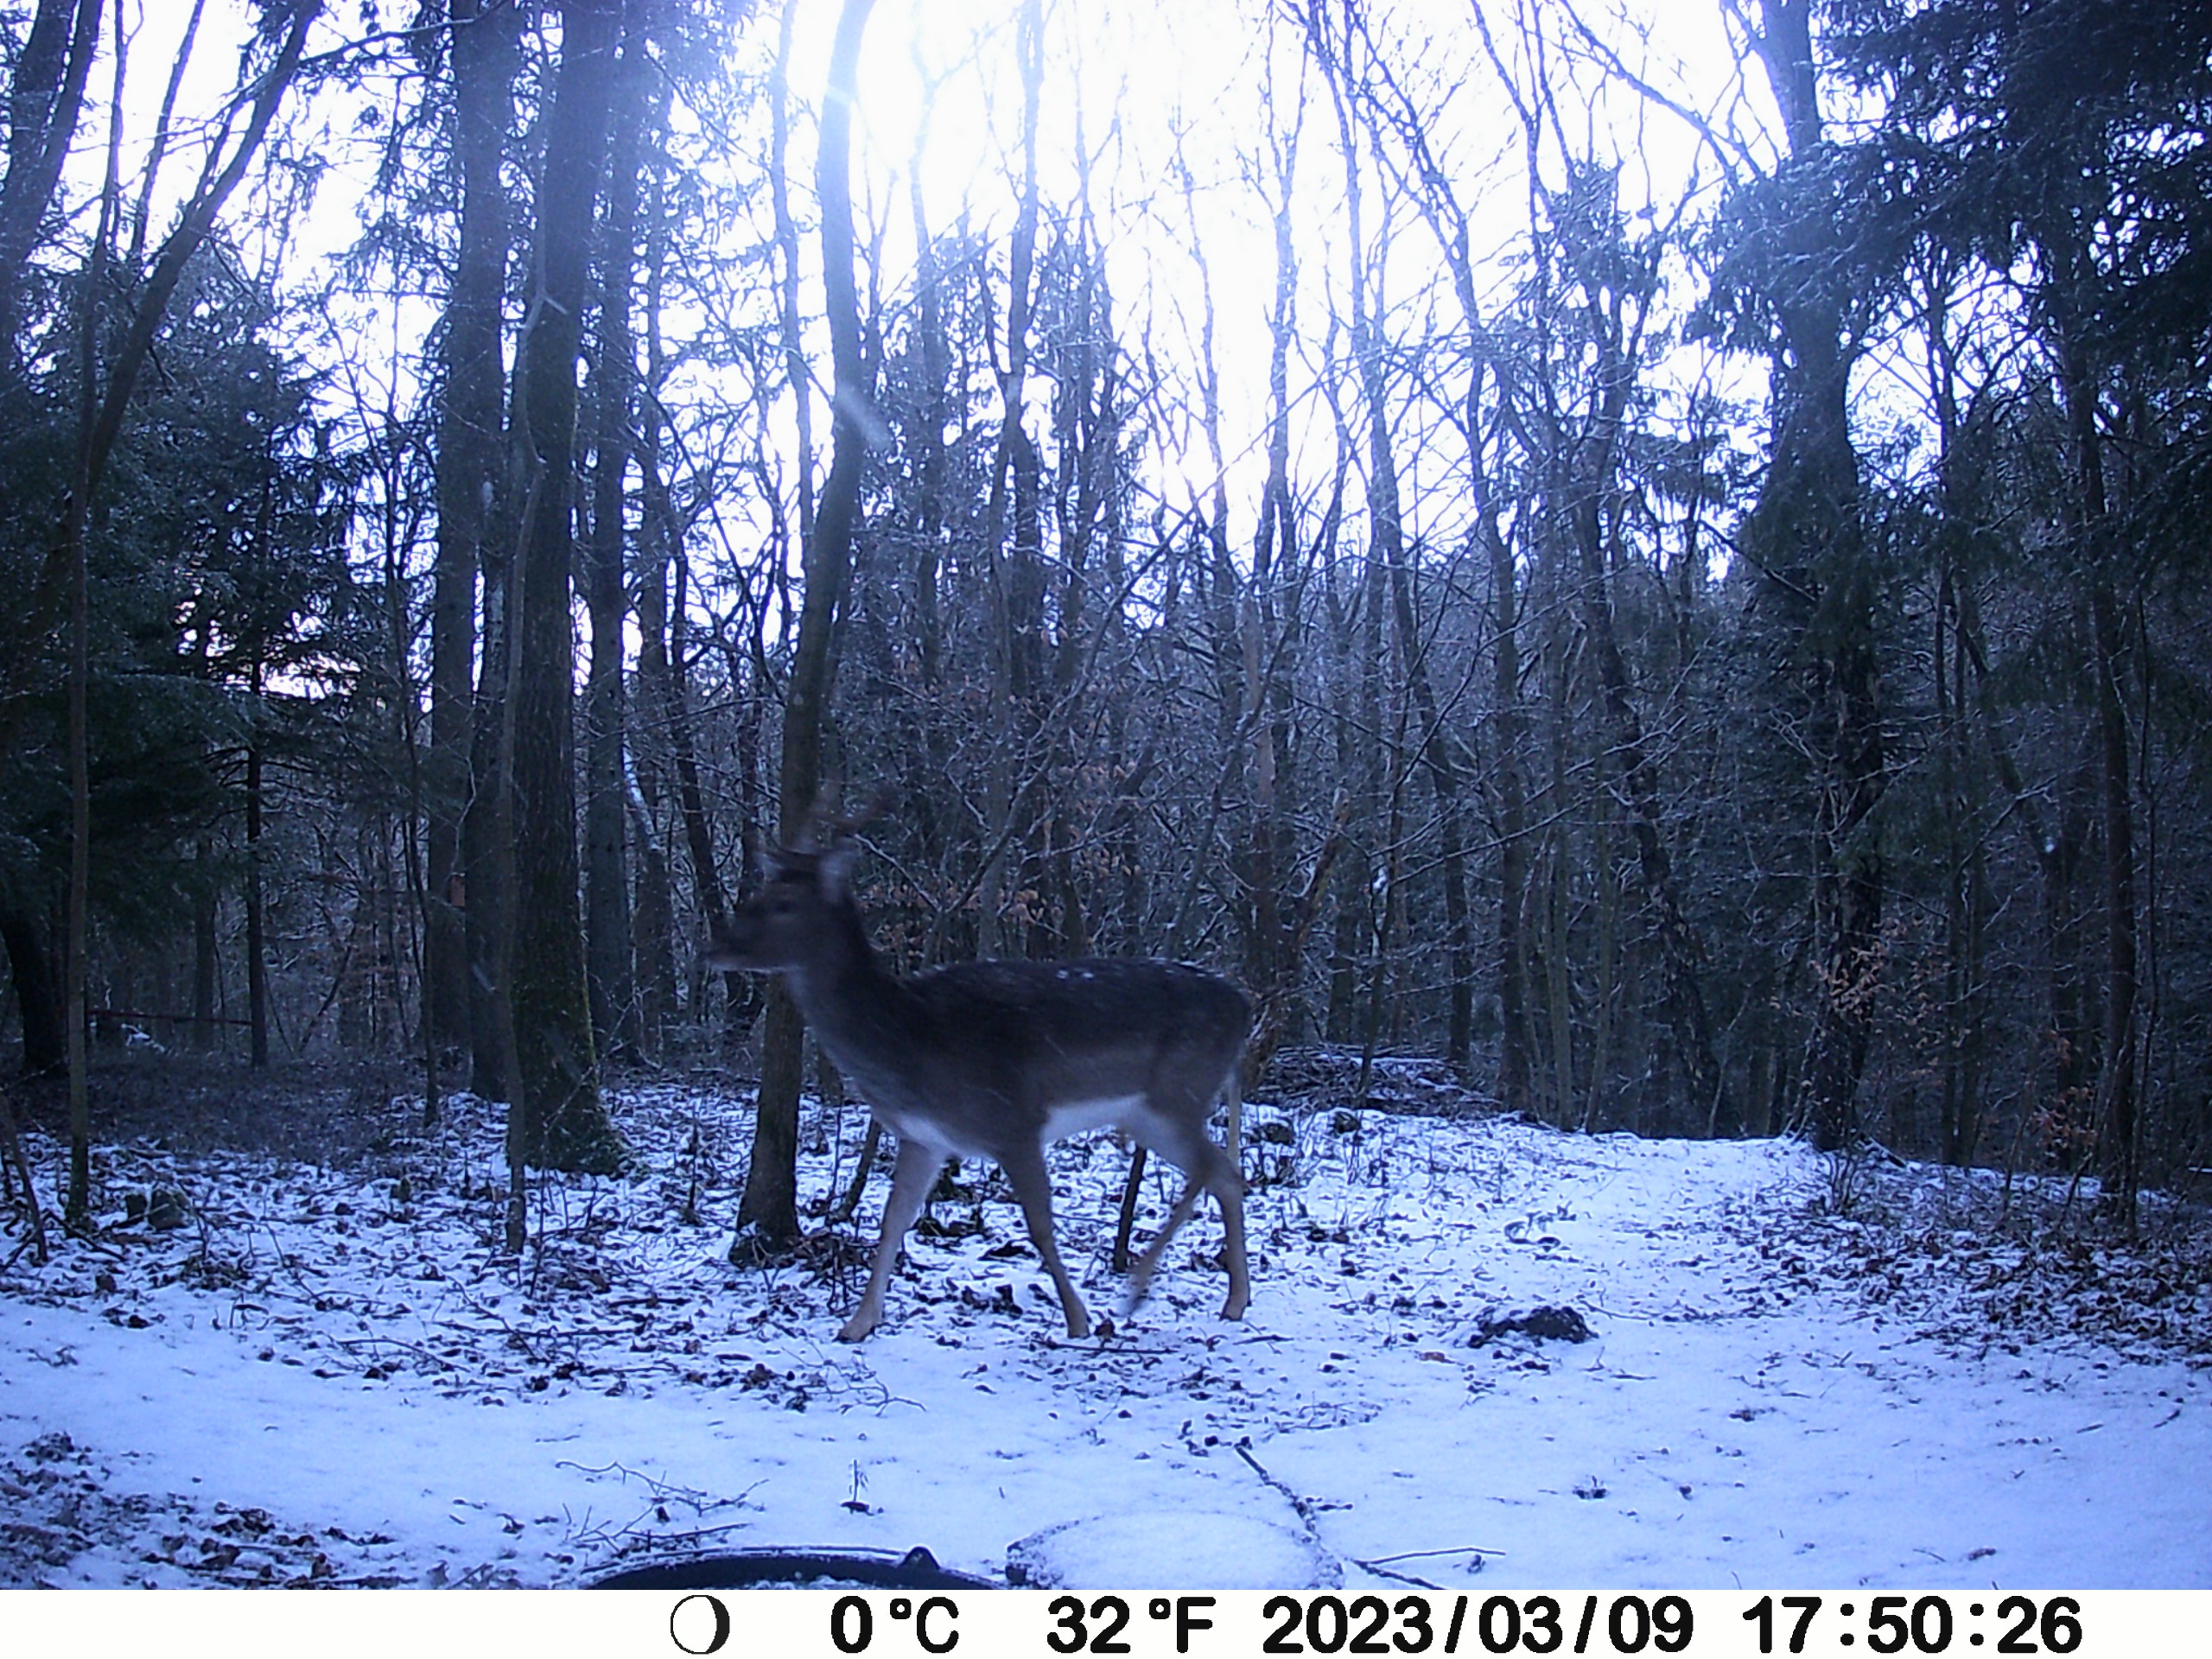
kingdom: Animalia
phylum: Chordata
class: Mammalia
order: Artiodactyla
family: Cervidae
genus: Dama
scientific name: Dama dama
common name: Dådyr
